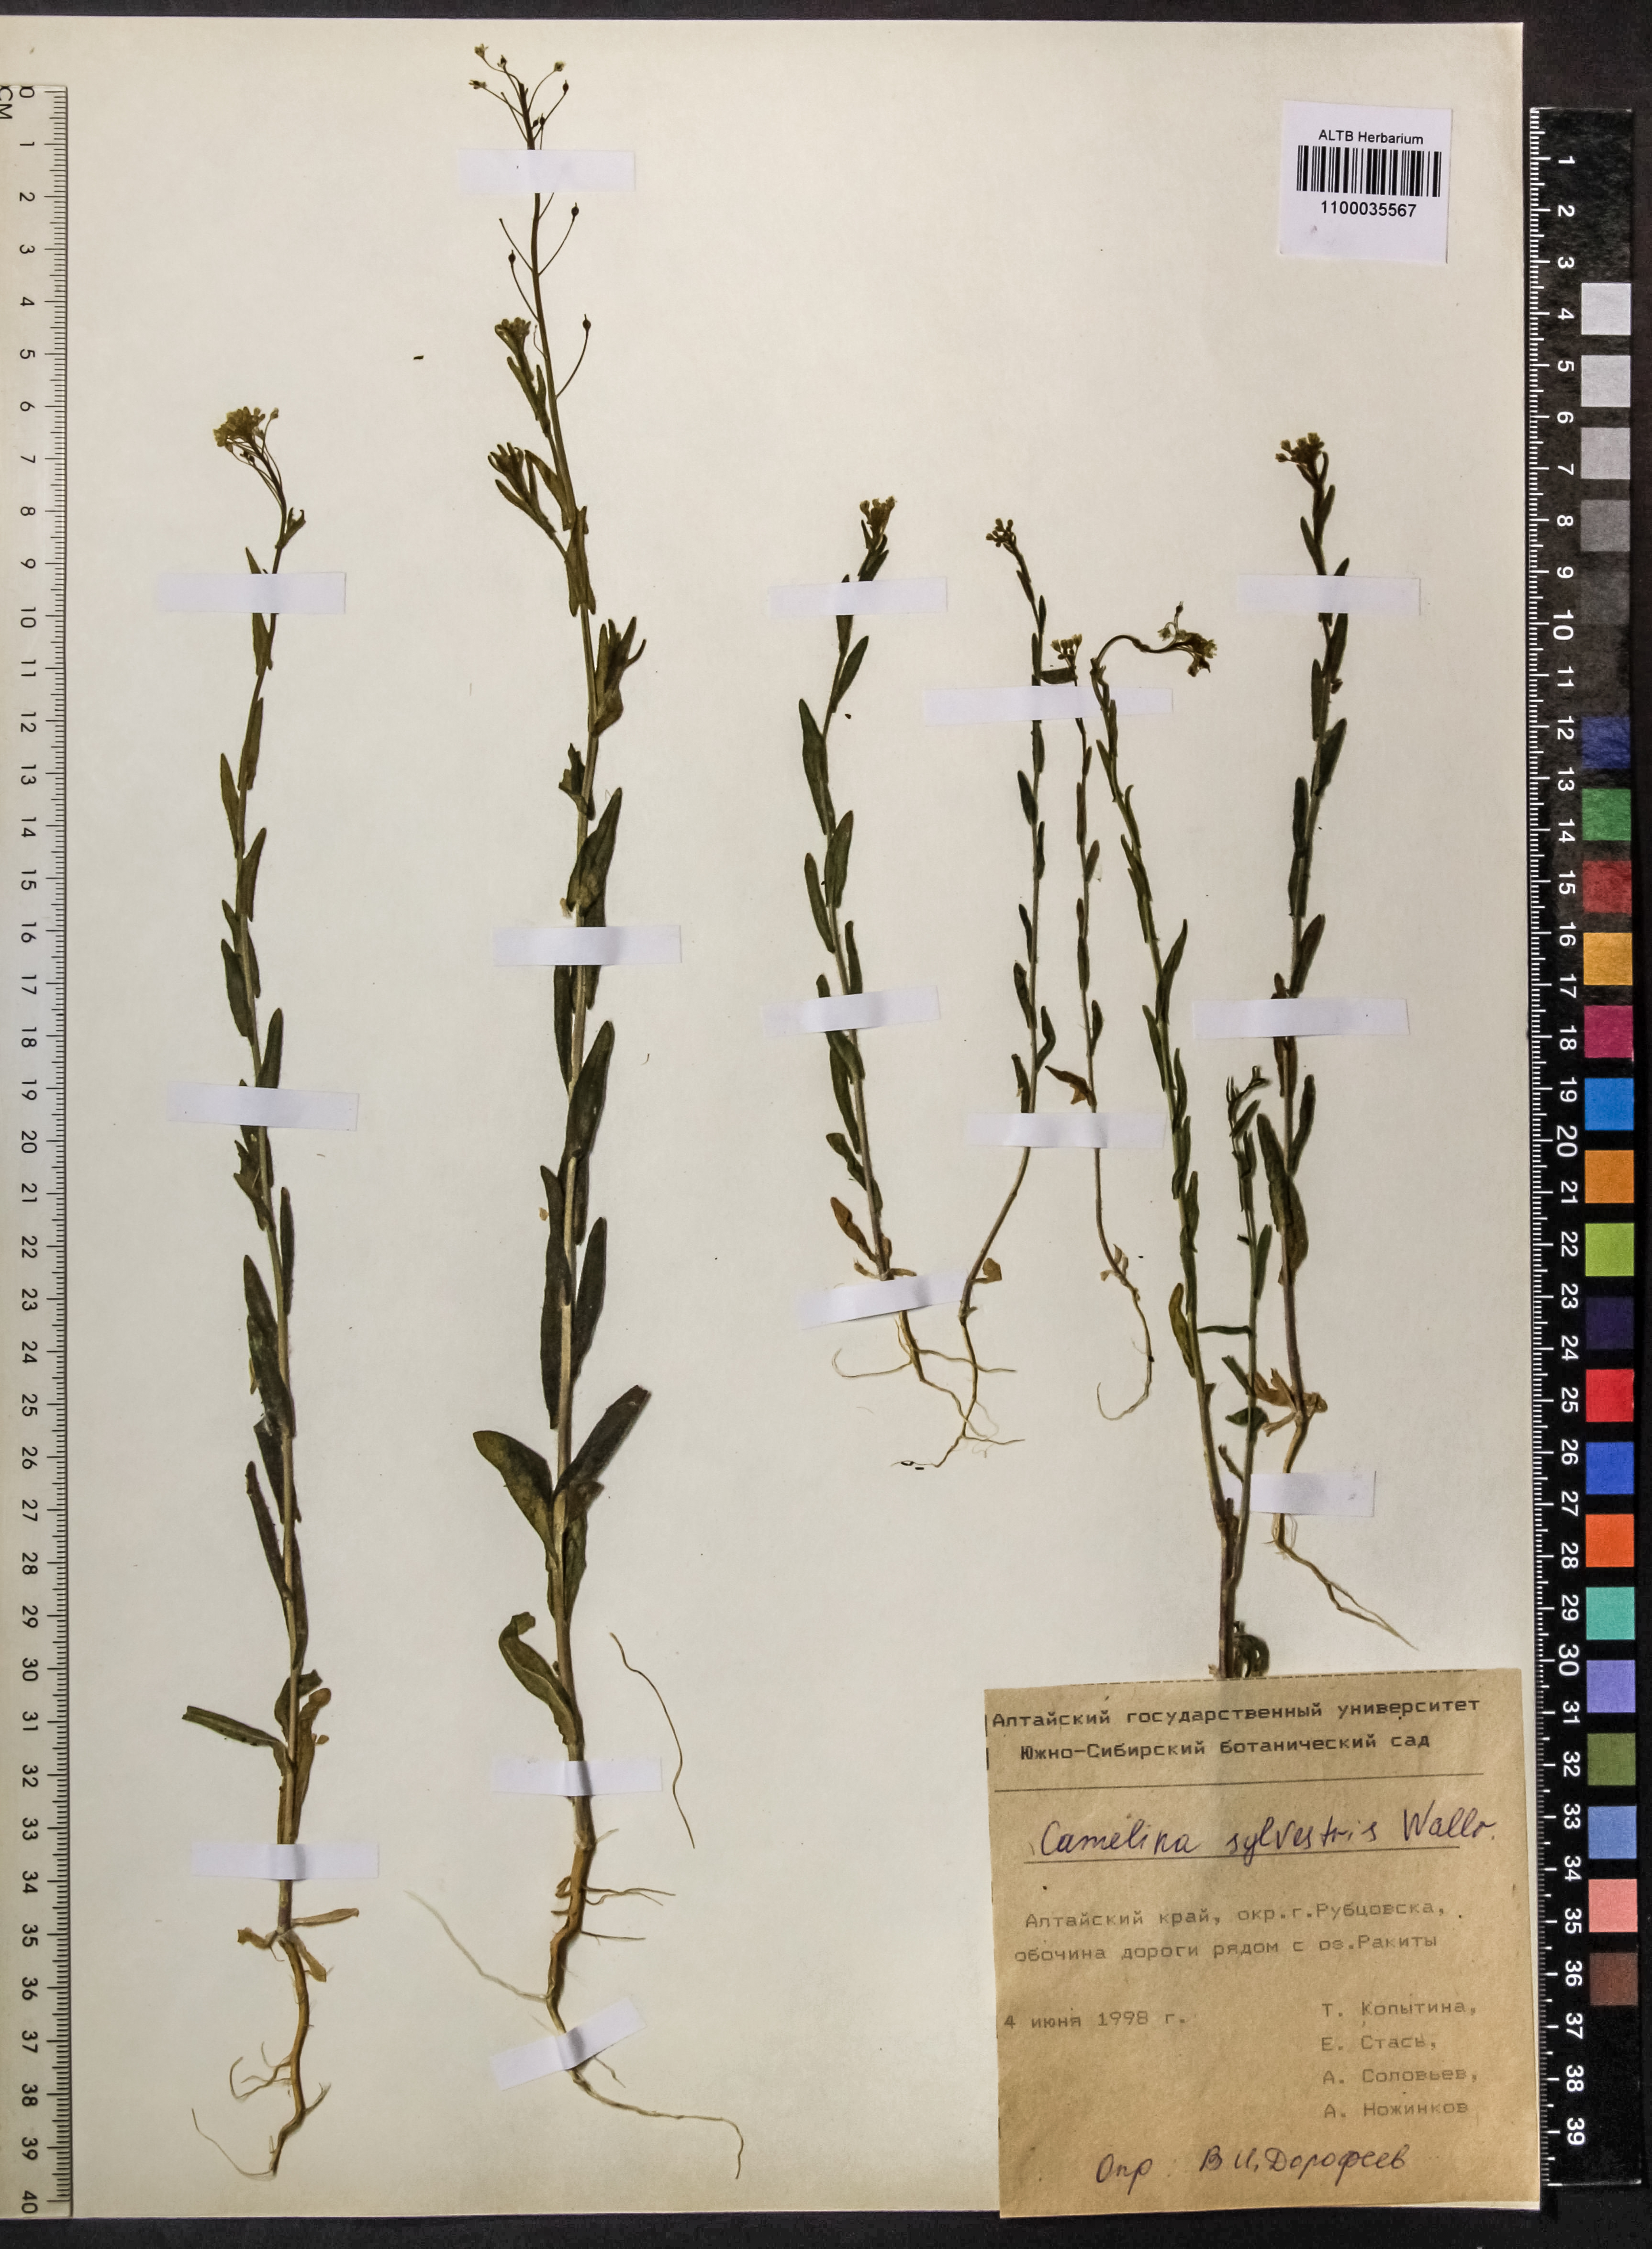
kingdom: Plantae
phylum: Tracheophyta
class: Magnoliopsida
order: Brassicales
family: Brassicaceae
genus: Camelina
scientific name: Camelina microcarpa
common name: Lesser gold-of-pleasure
